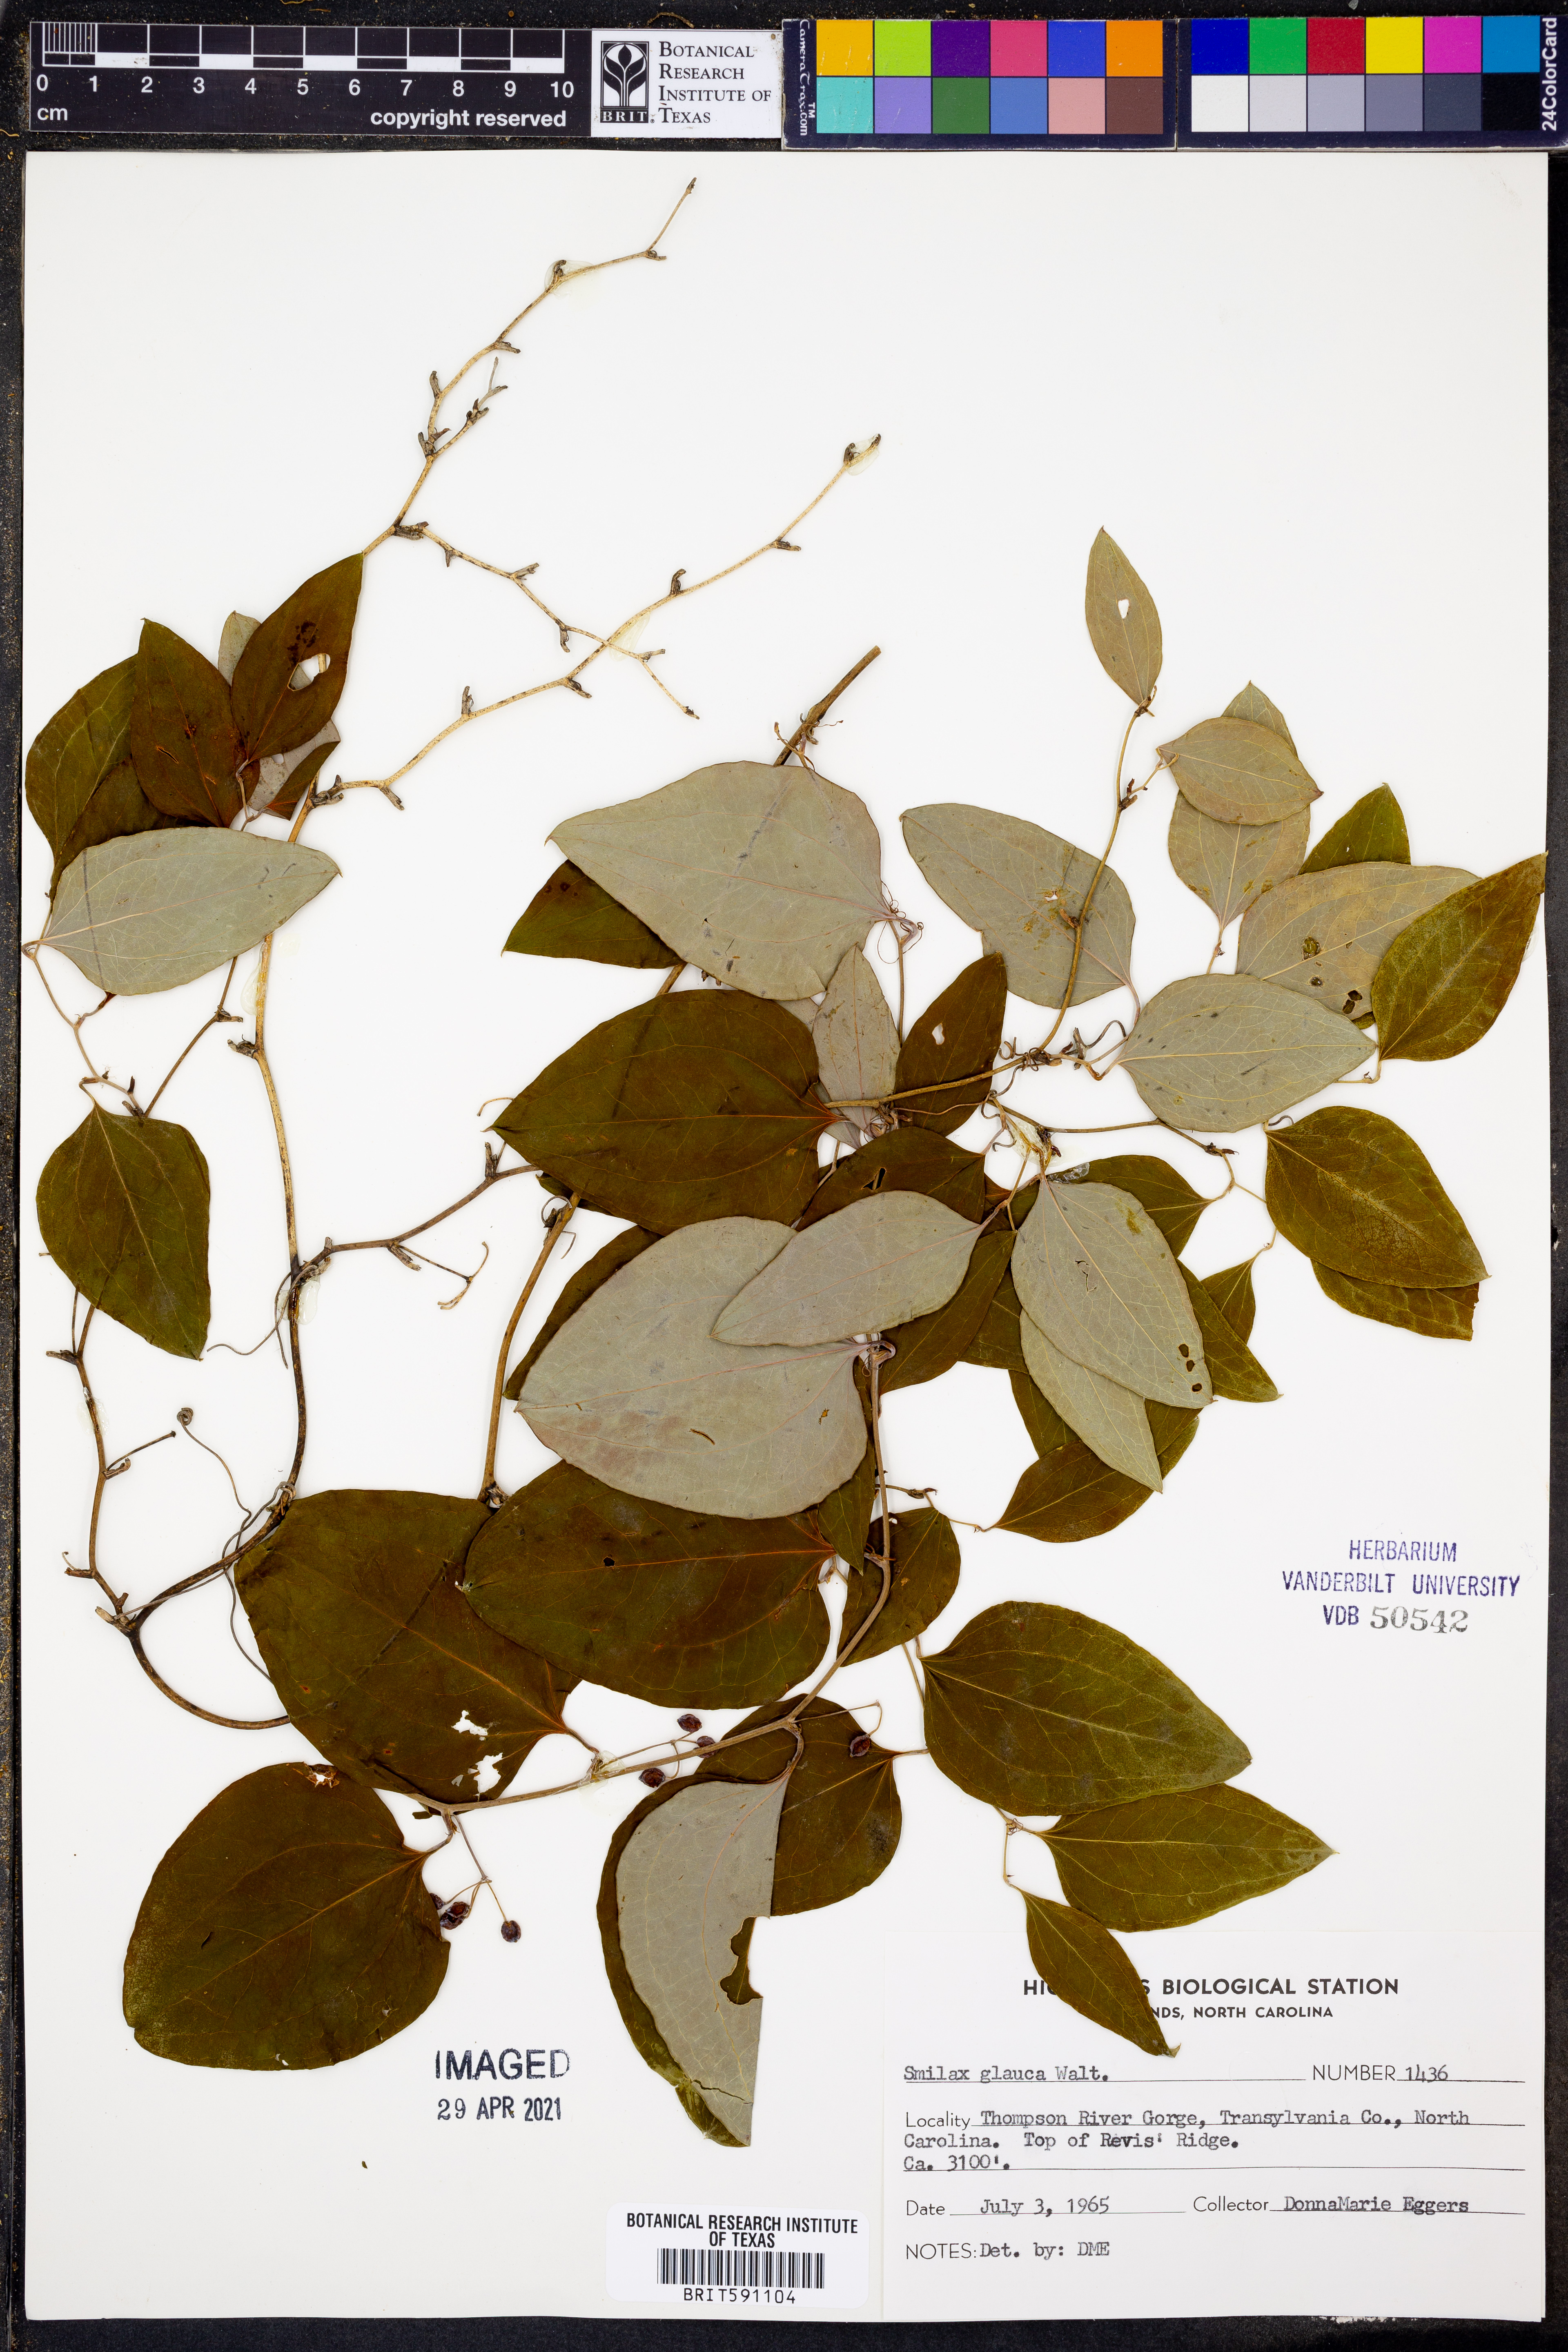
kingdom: Plantae
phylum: Tracheophyta
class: Liliopsida
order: Liliales
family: Smilacaceae
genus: Smilax
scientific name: Smilax glauca
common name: Cat greenbrier
